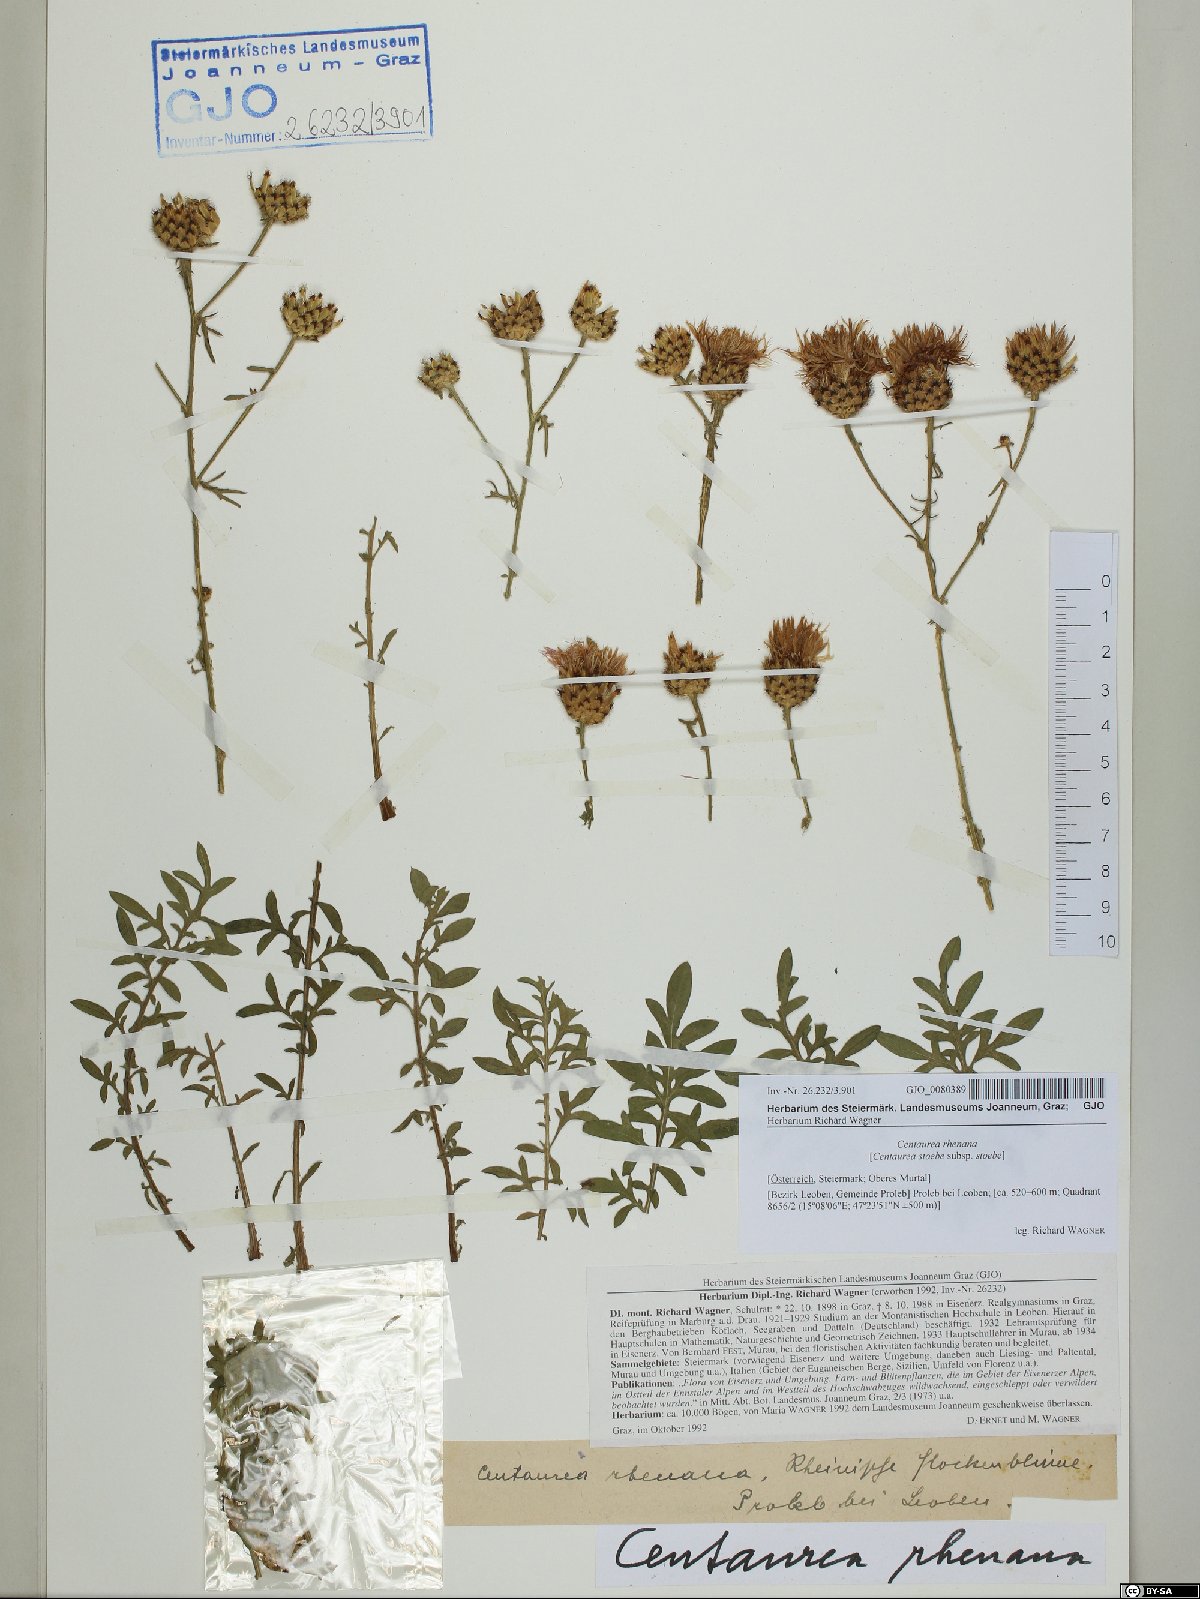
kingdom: Plantae
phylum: Tracheophyta
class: Magnoliopsida
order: Asterales
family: Asteraceae
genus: Centaurea
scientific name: Centaurea stoebe
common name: Spotted knapweed
